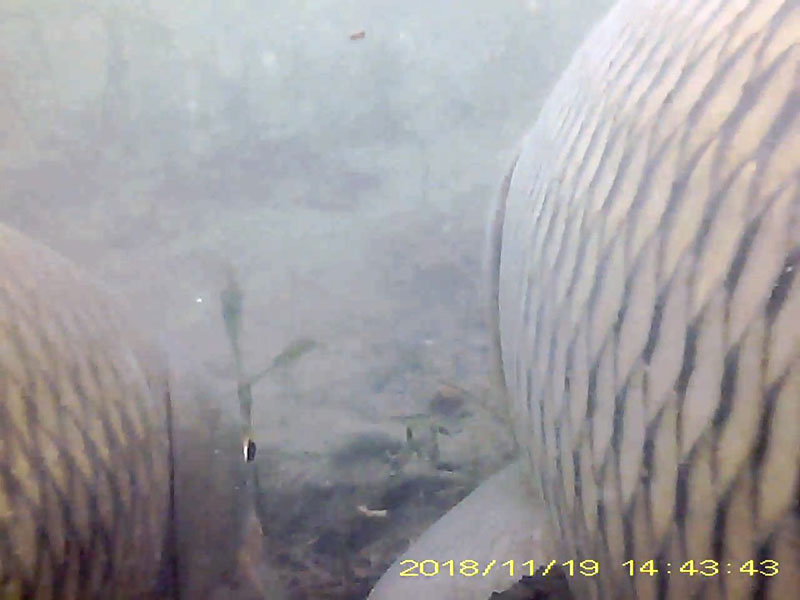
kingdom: Animalia
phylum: Chordata
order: Cypriniformes
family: Cyprinidae
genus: Cyprinus
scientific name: Cyprinus carpio
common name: コイ
